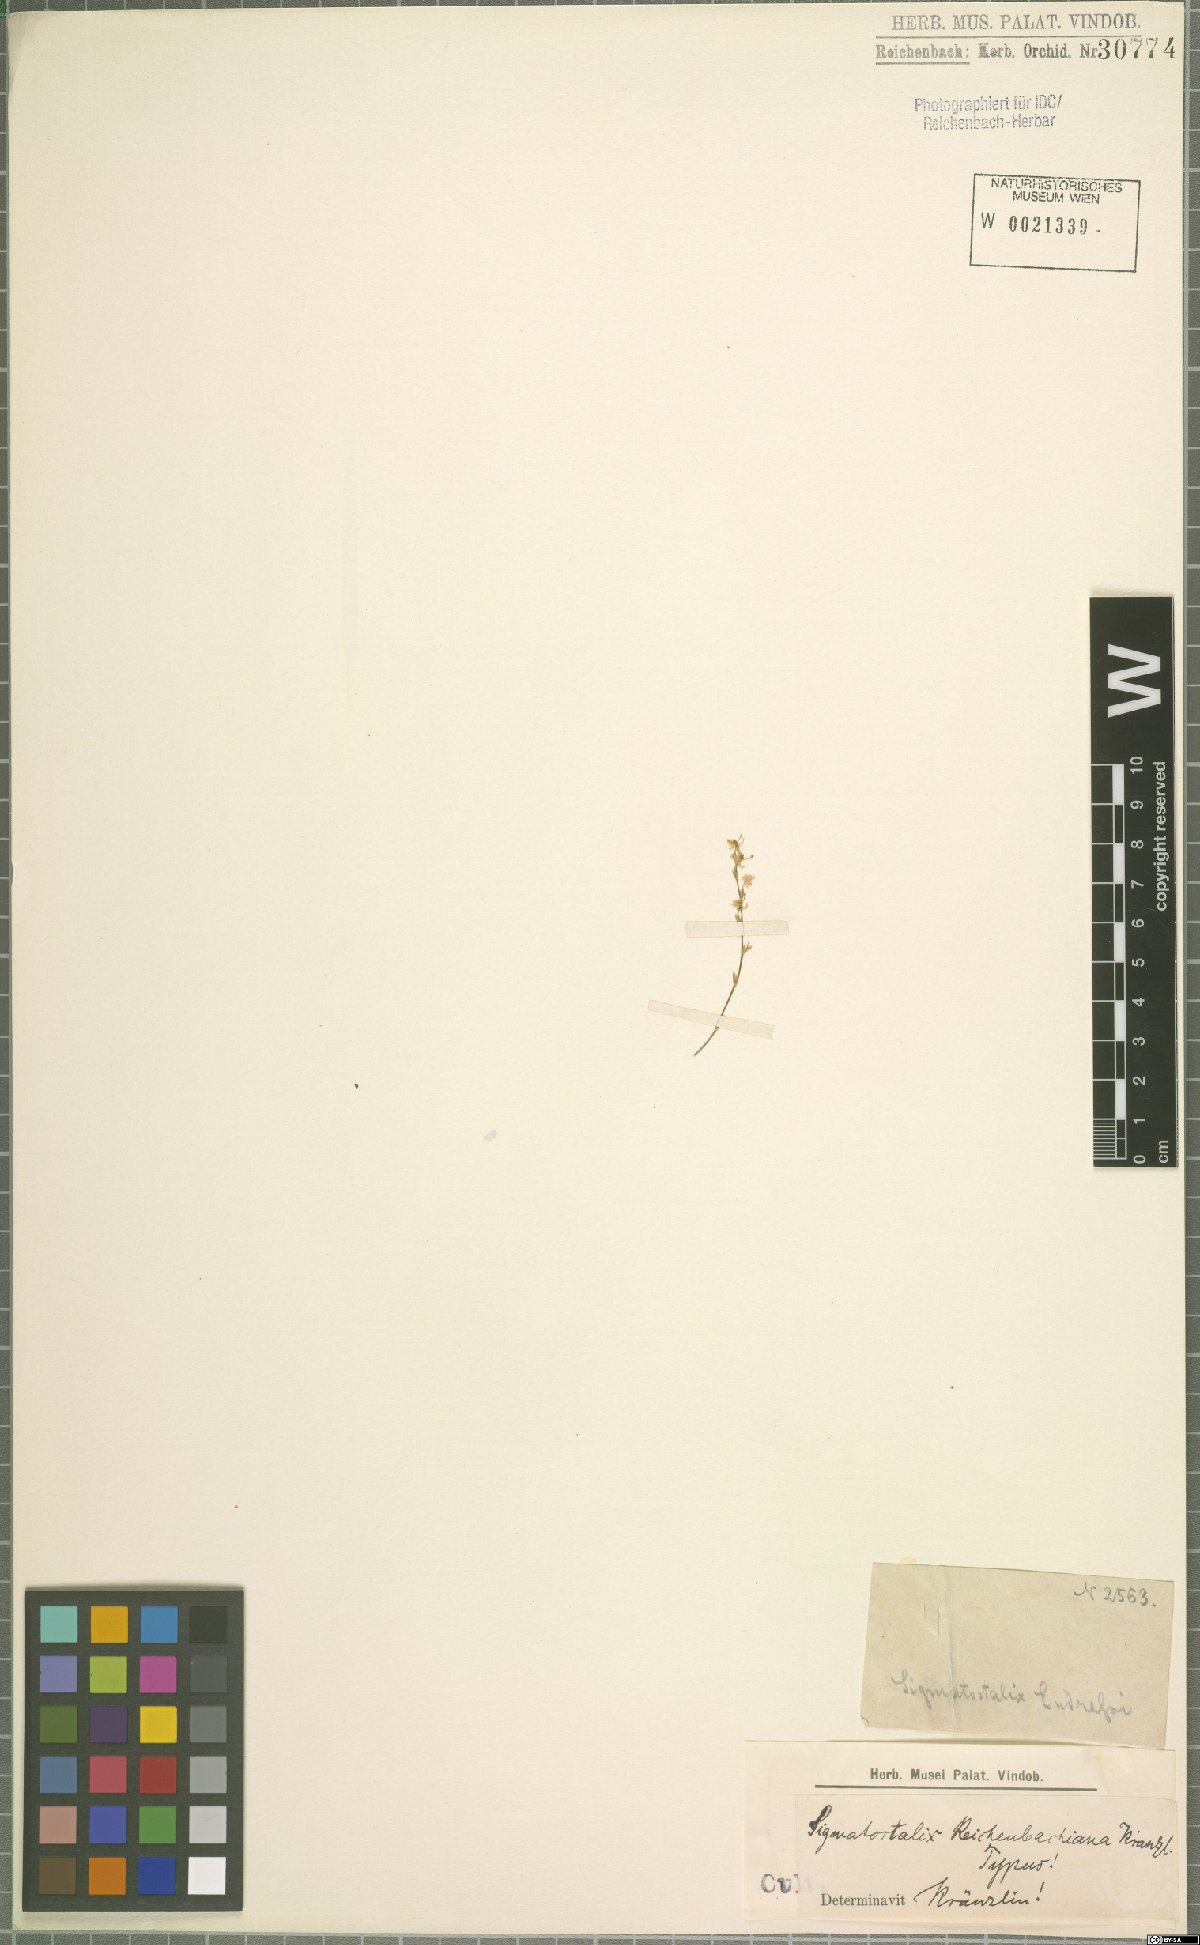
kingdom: Plantae
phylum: Tracheophyta
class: Liliopsida
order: Asparagales
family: Orchidaceae
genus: Oncidium
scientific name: Oncidium macrobulbon
